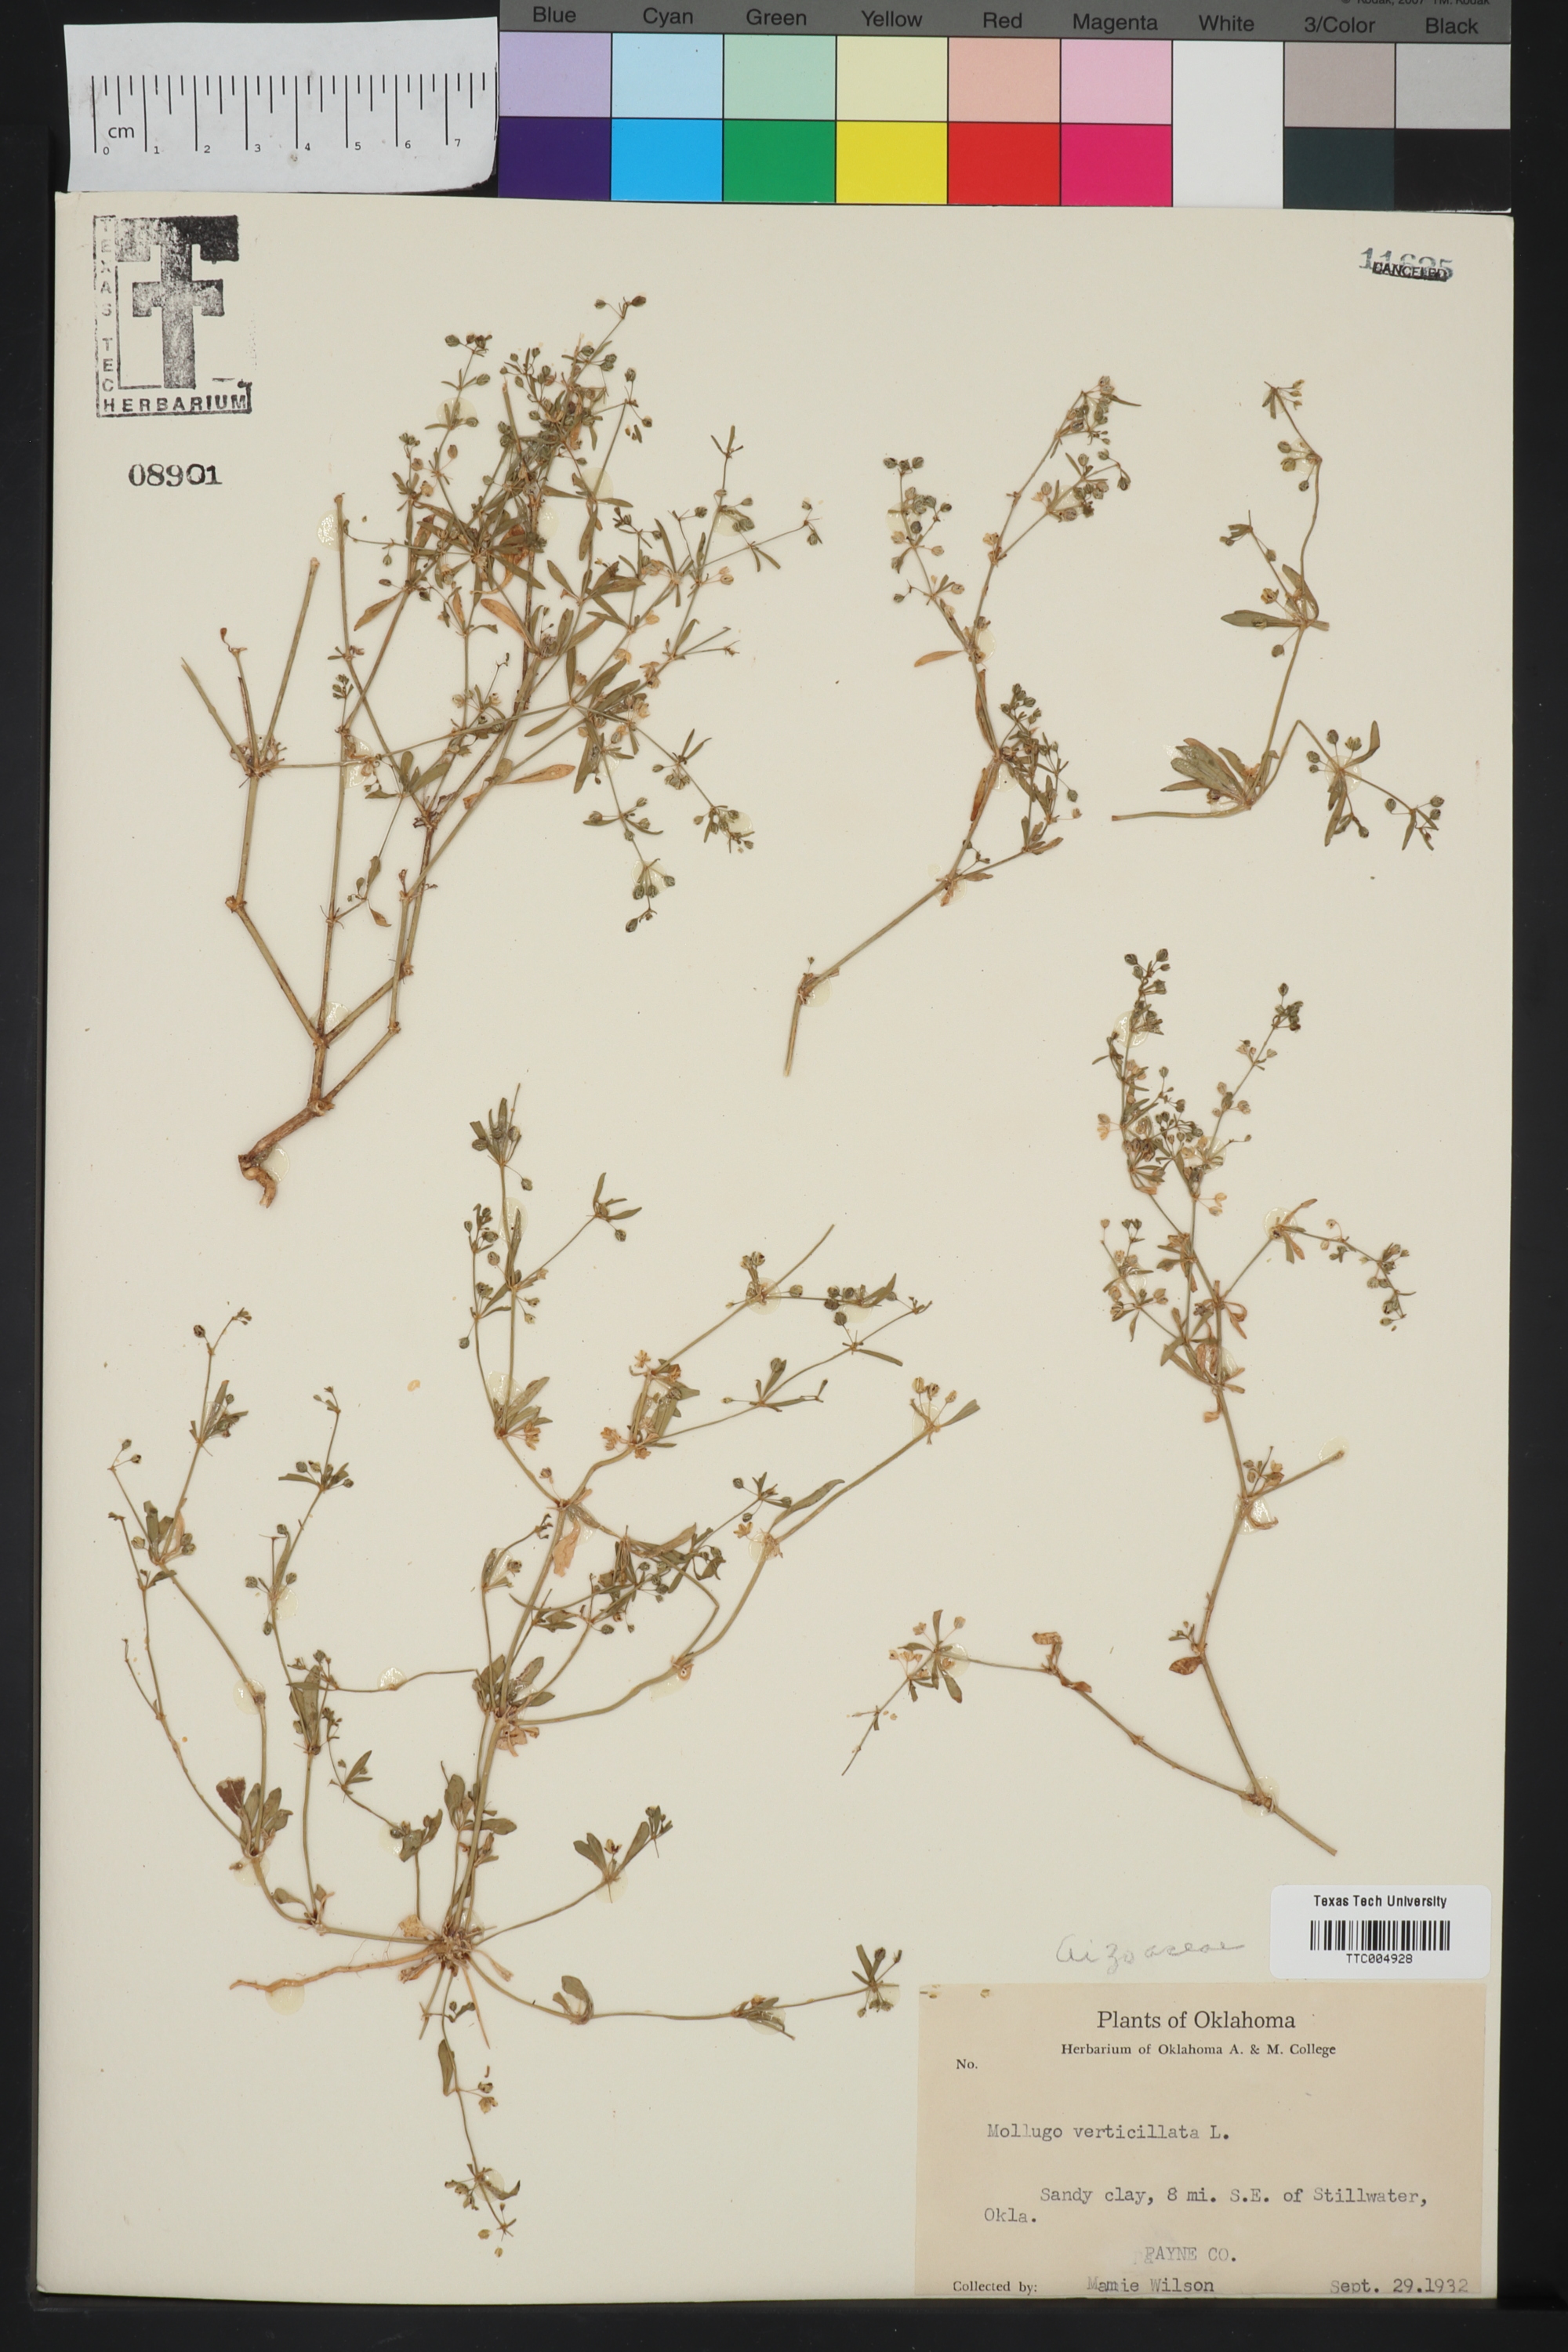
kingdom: Plantae
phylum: Tracheophyta
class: Magnoliopsida
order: Caryophyllales
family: Molluginaceae
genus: Mollugo
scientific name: Mollugo verticillata
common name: Green carpetweed
